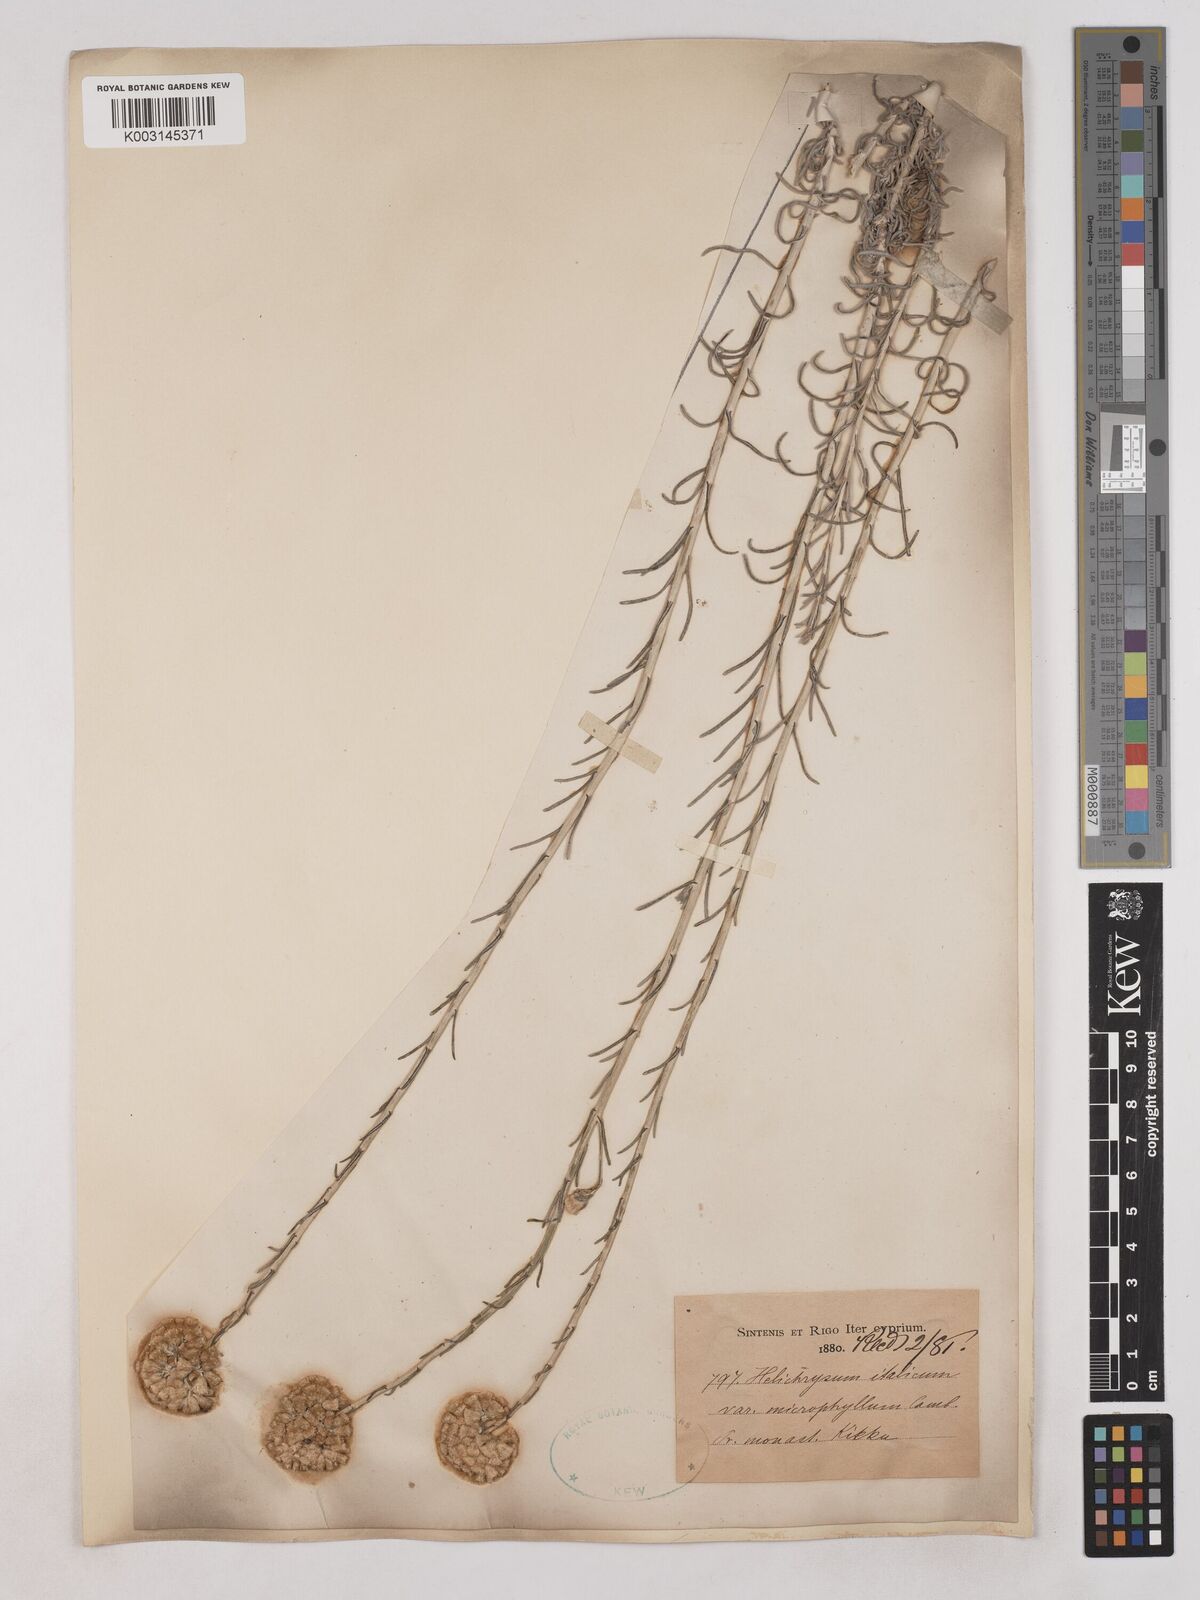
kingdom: Plantae
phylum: Tracheophyta
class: Magnoliopsida
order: Asterales
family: Asteraceae
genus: Helichrysum
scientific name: Helichrysum italicum
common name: Curryplant
